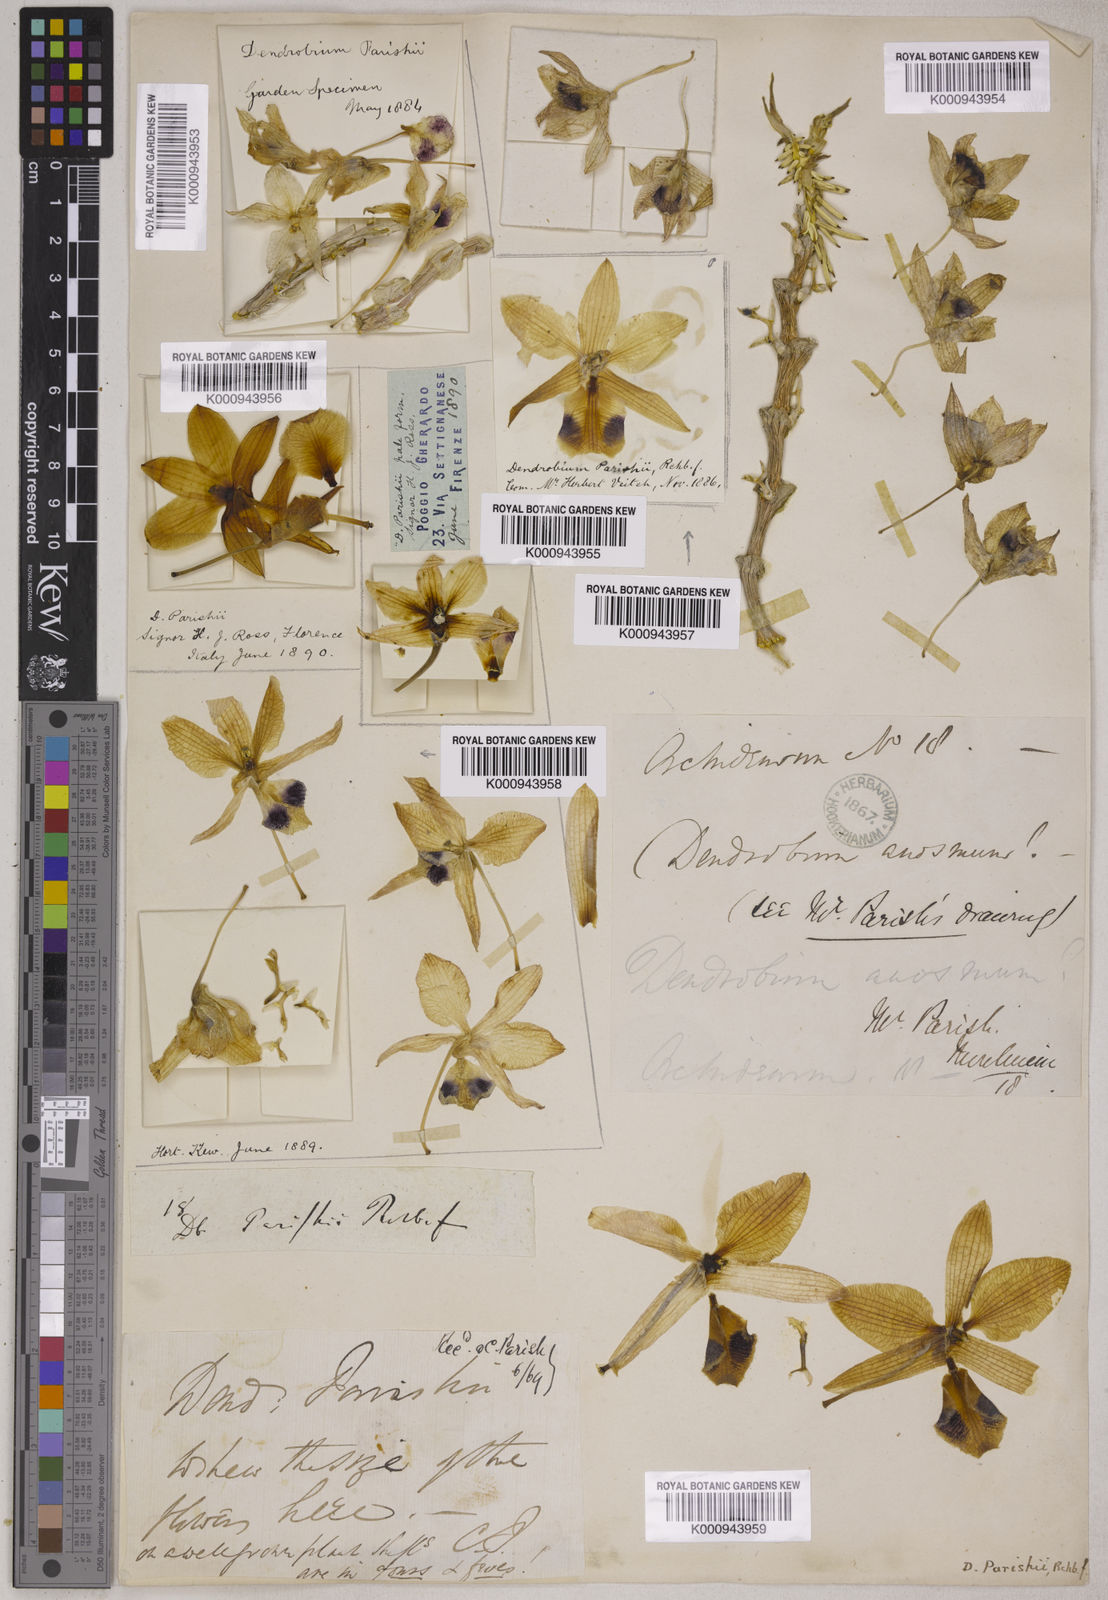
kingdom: Plantae
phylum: Tracheophyta
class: Liliopsida
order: Asparagales
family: Orchidaceae
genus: Dendrobium
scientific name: Dendrobium
